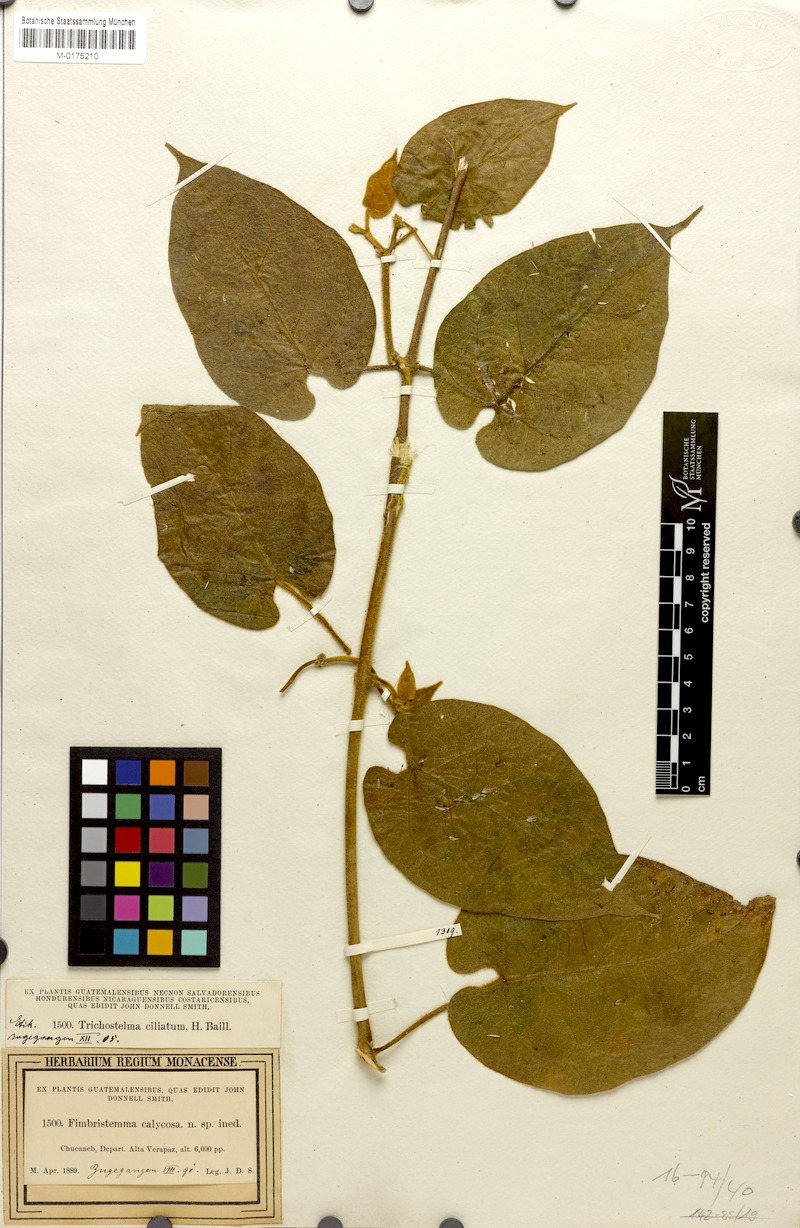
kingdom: Plantae
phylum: Tracheophyta
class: Magnoliopsida
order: Gentianales
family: Apocynaceae
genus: Gonolobus
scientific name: Gonolobus xanthotrichus
